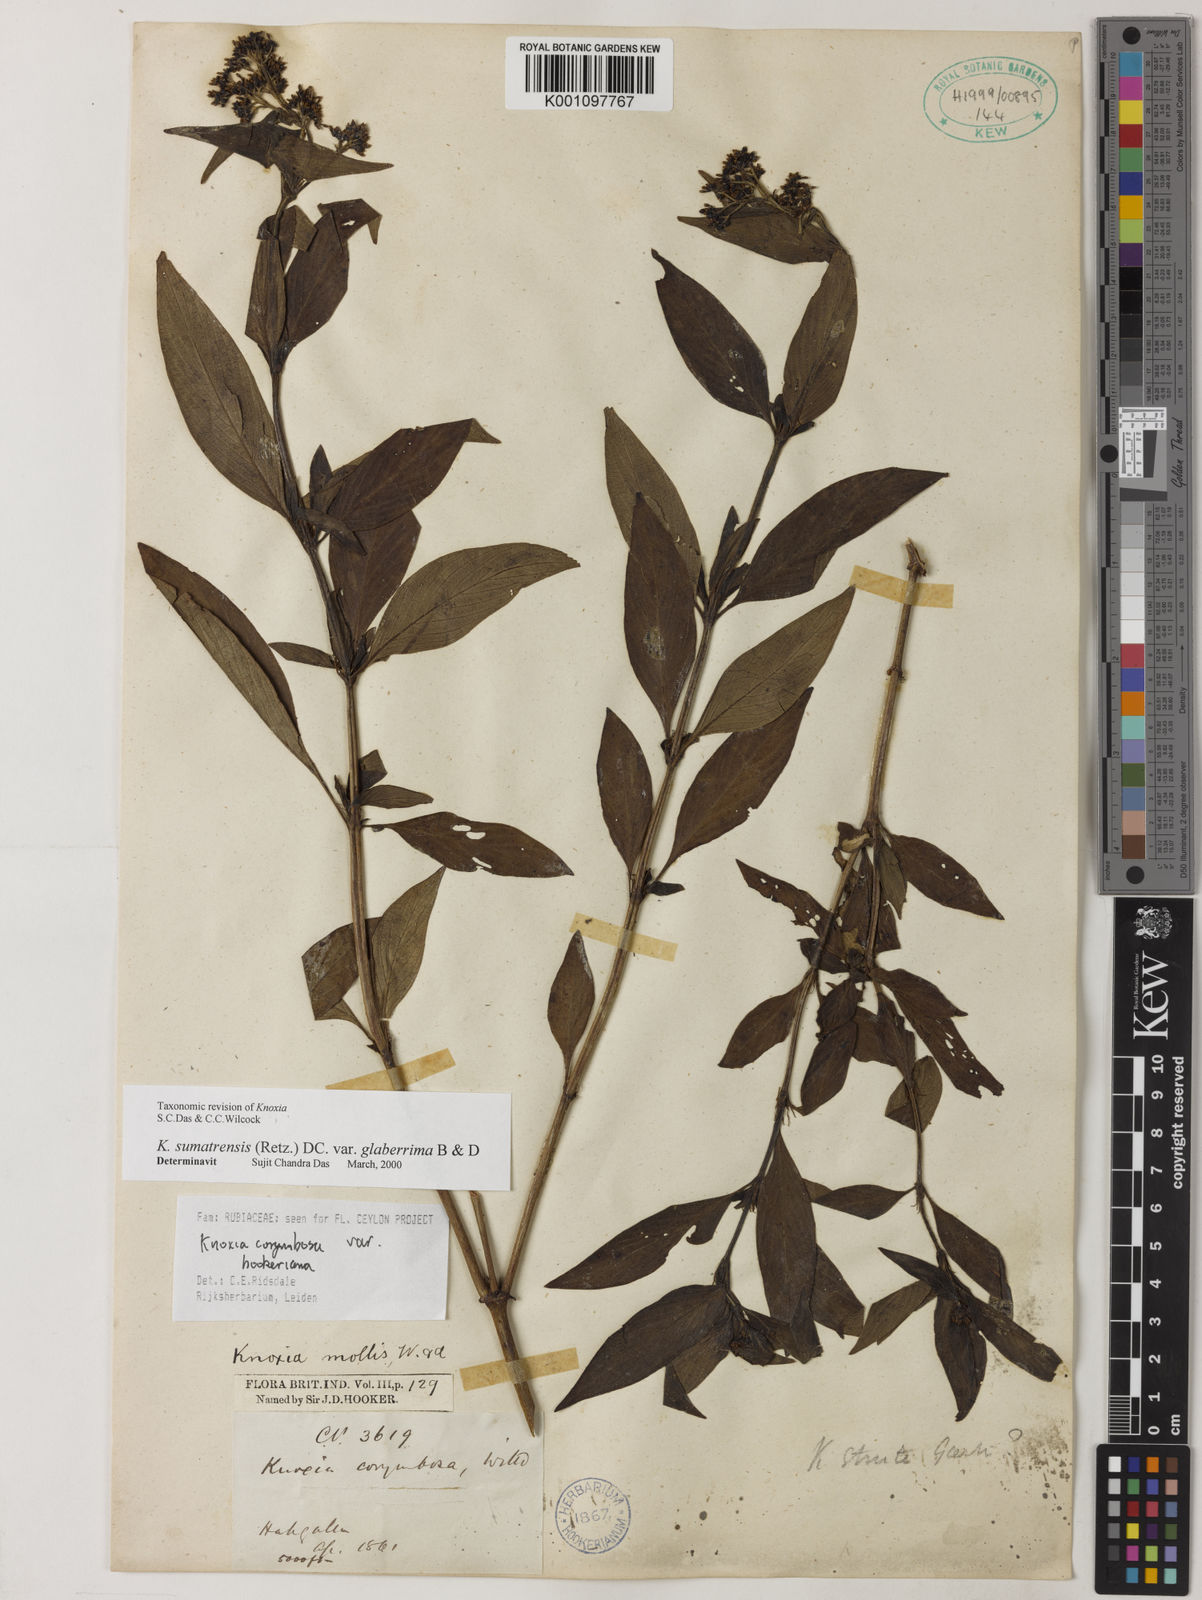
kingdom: Plantae
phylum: Tracheophyta
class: Magnoliopsida
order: Gentianales
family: Rubiaceae
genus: Knoxia
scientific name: Knoxia sumatrensis
